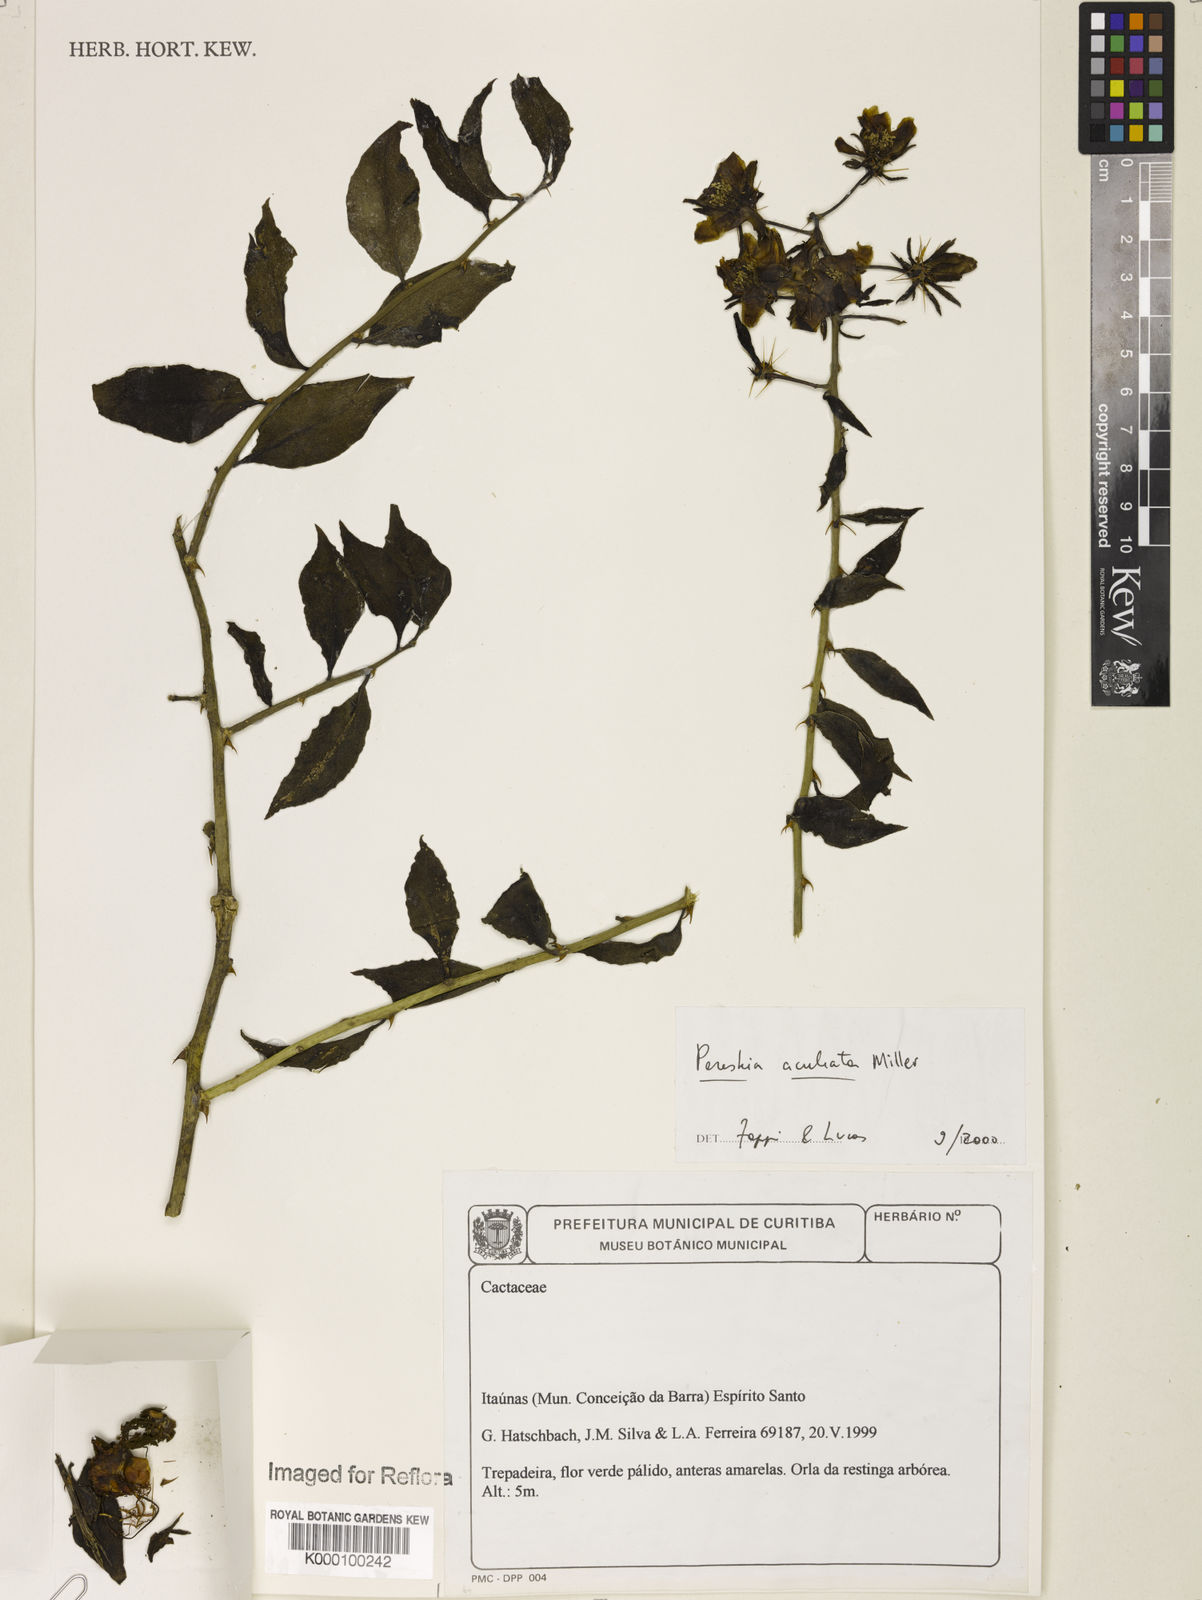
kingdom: Plantae
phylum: Tracheophyta
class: Magnoliopsida
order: Caryophyllales
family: Cactaceae
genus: Pereskia
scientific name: Pereskia
